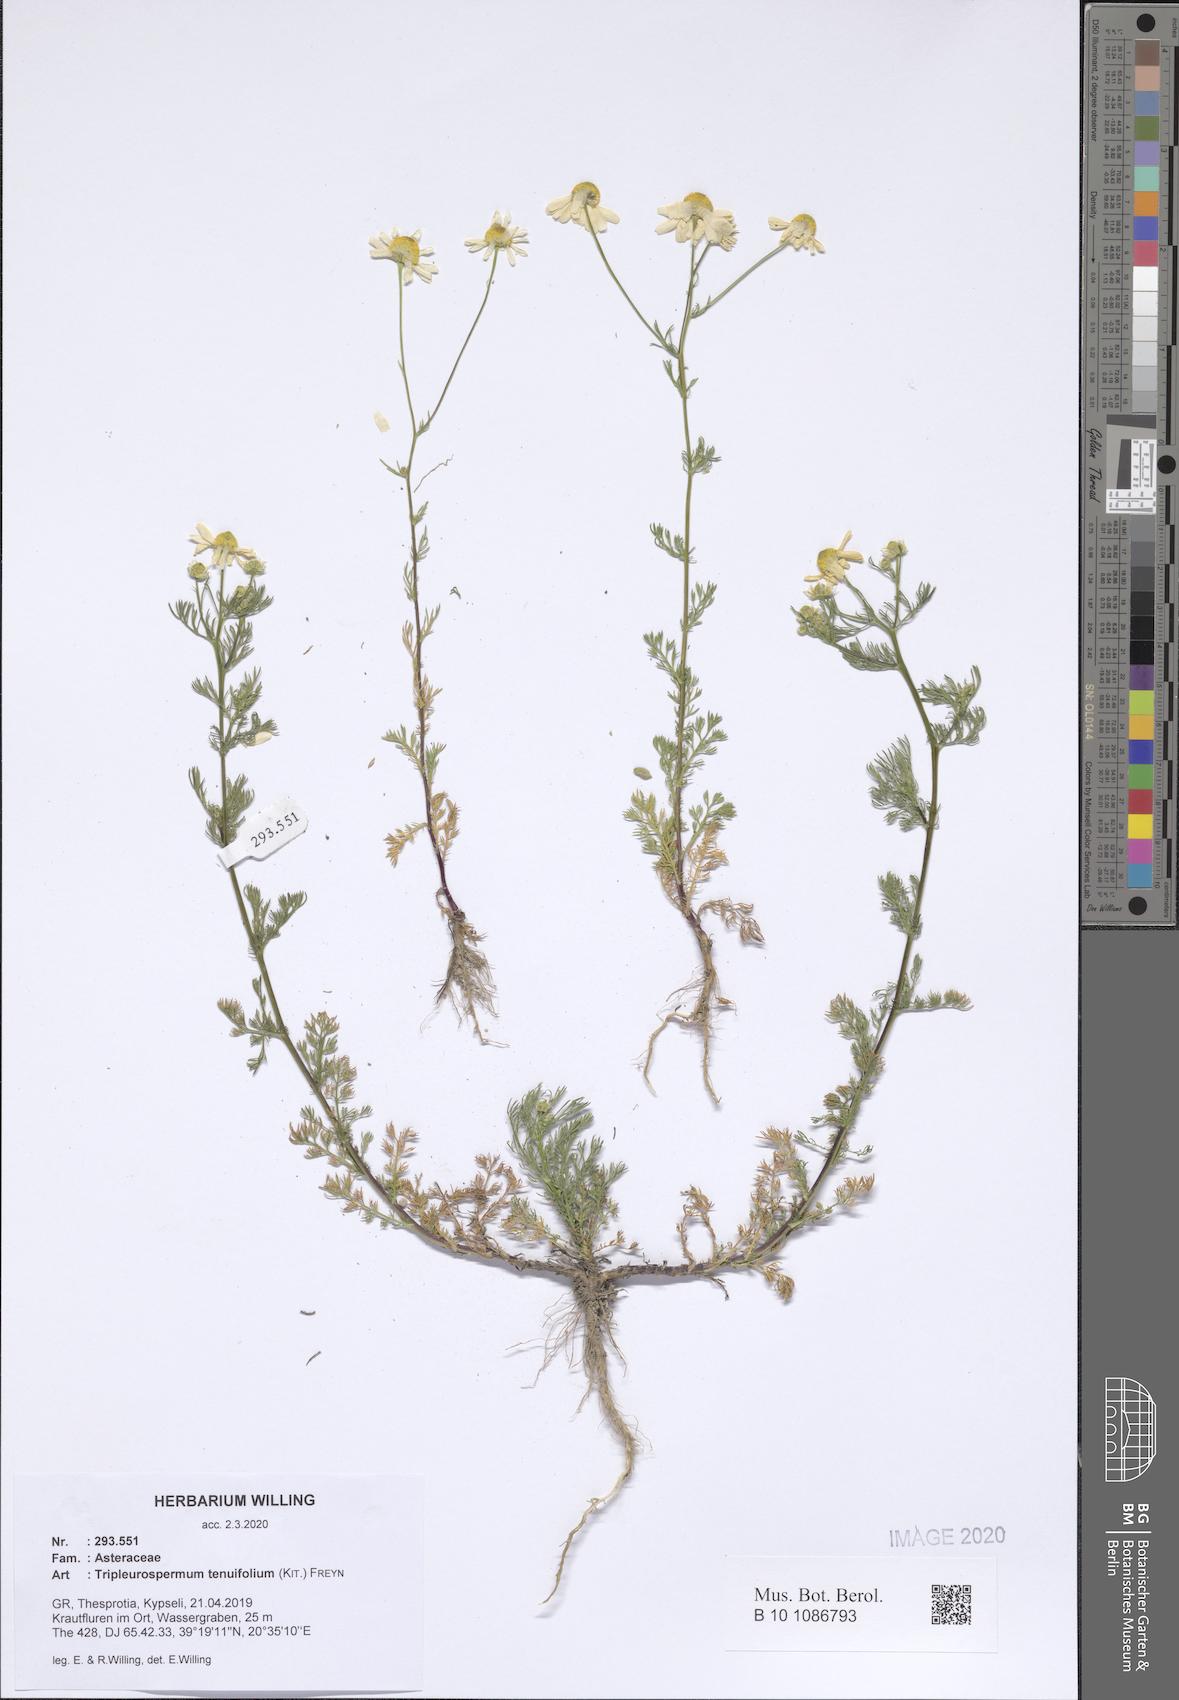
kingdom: Plantae
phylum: Tracheophyta
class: Magnoliopsida
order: Asterales
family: Asteraceae
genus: Tripleurospermum
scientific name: Tripleurospermum tenuifolium
